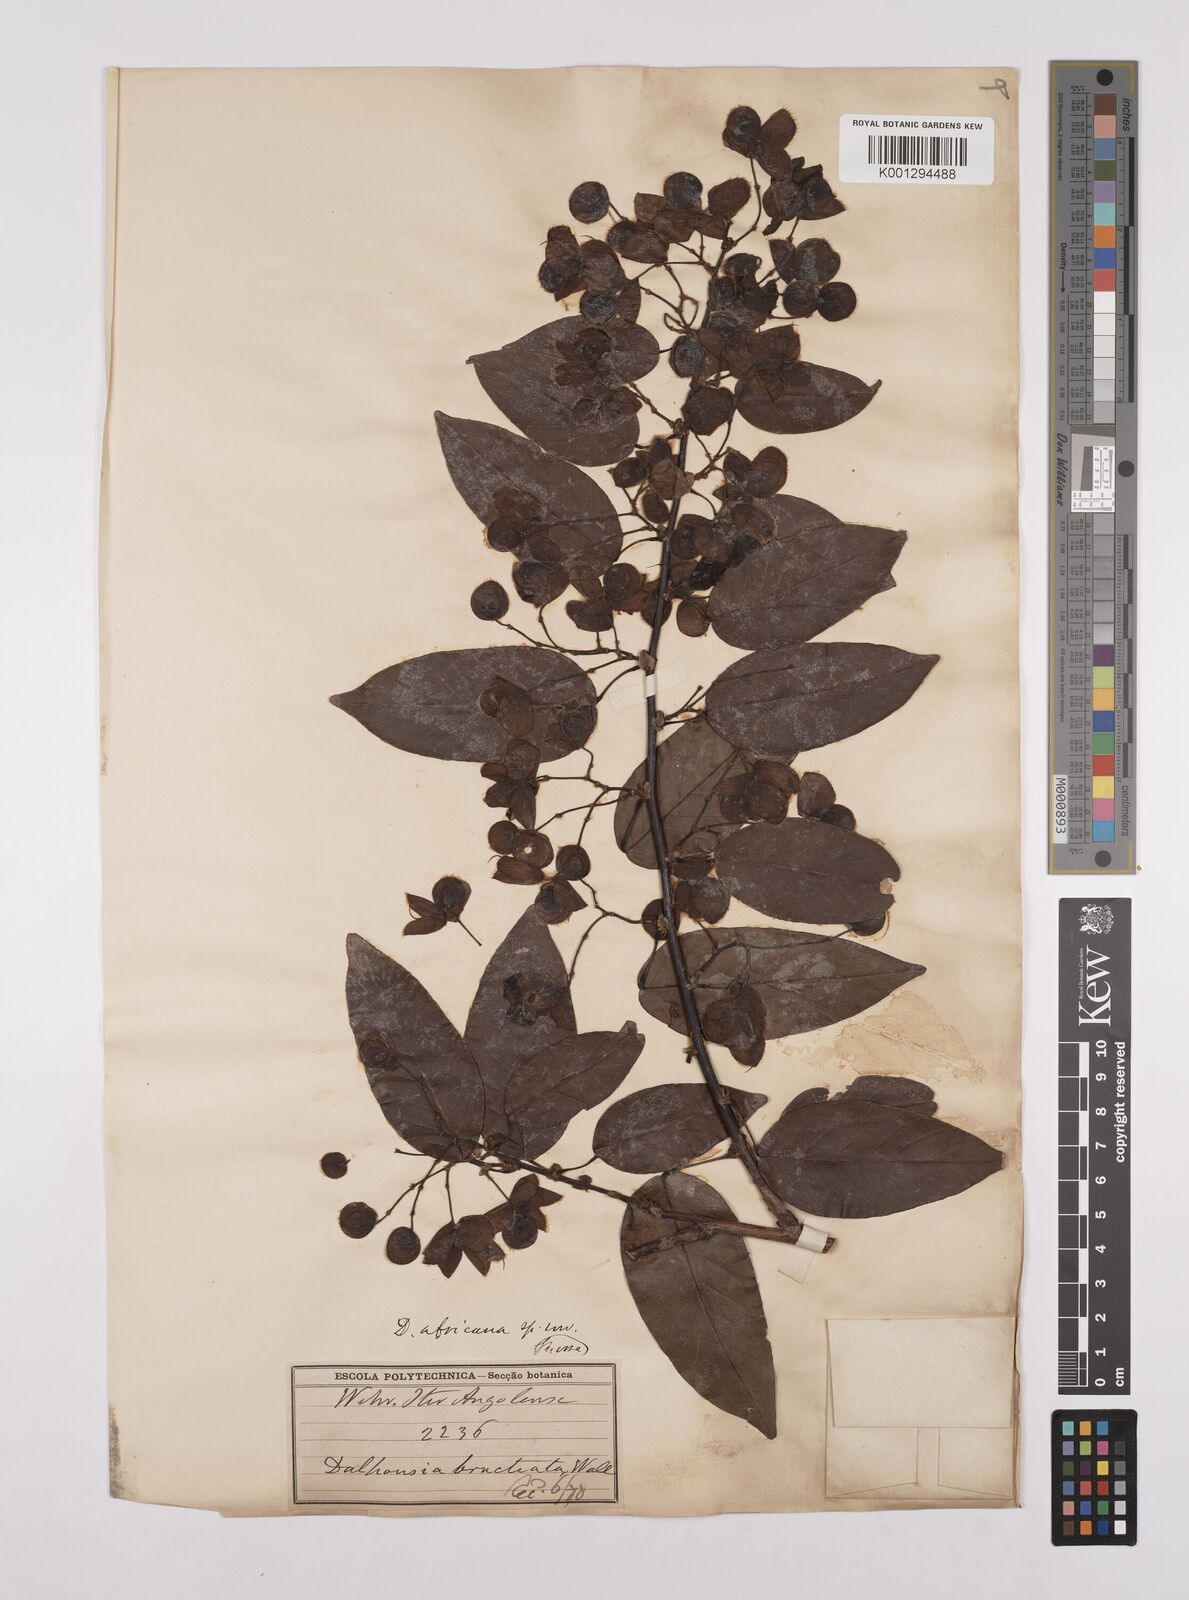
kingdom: Plantae
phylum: Tracheophyta
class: Magnoliopsida
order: Fabales
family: Fabaceae
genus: Dalhousiea
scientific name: Dalhousiea africana
